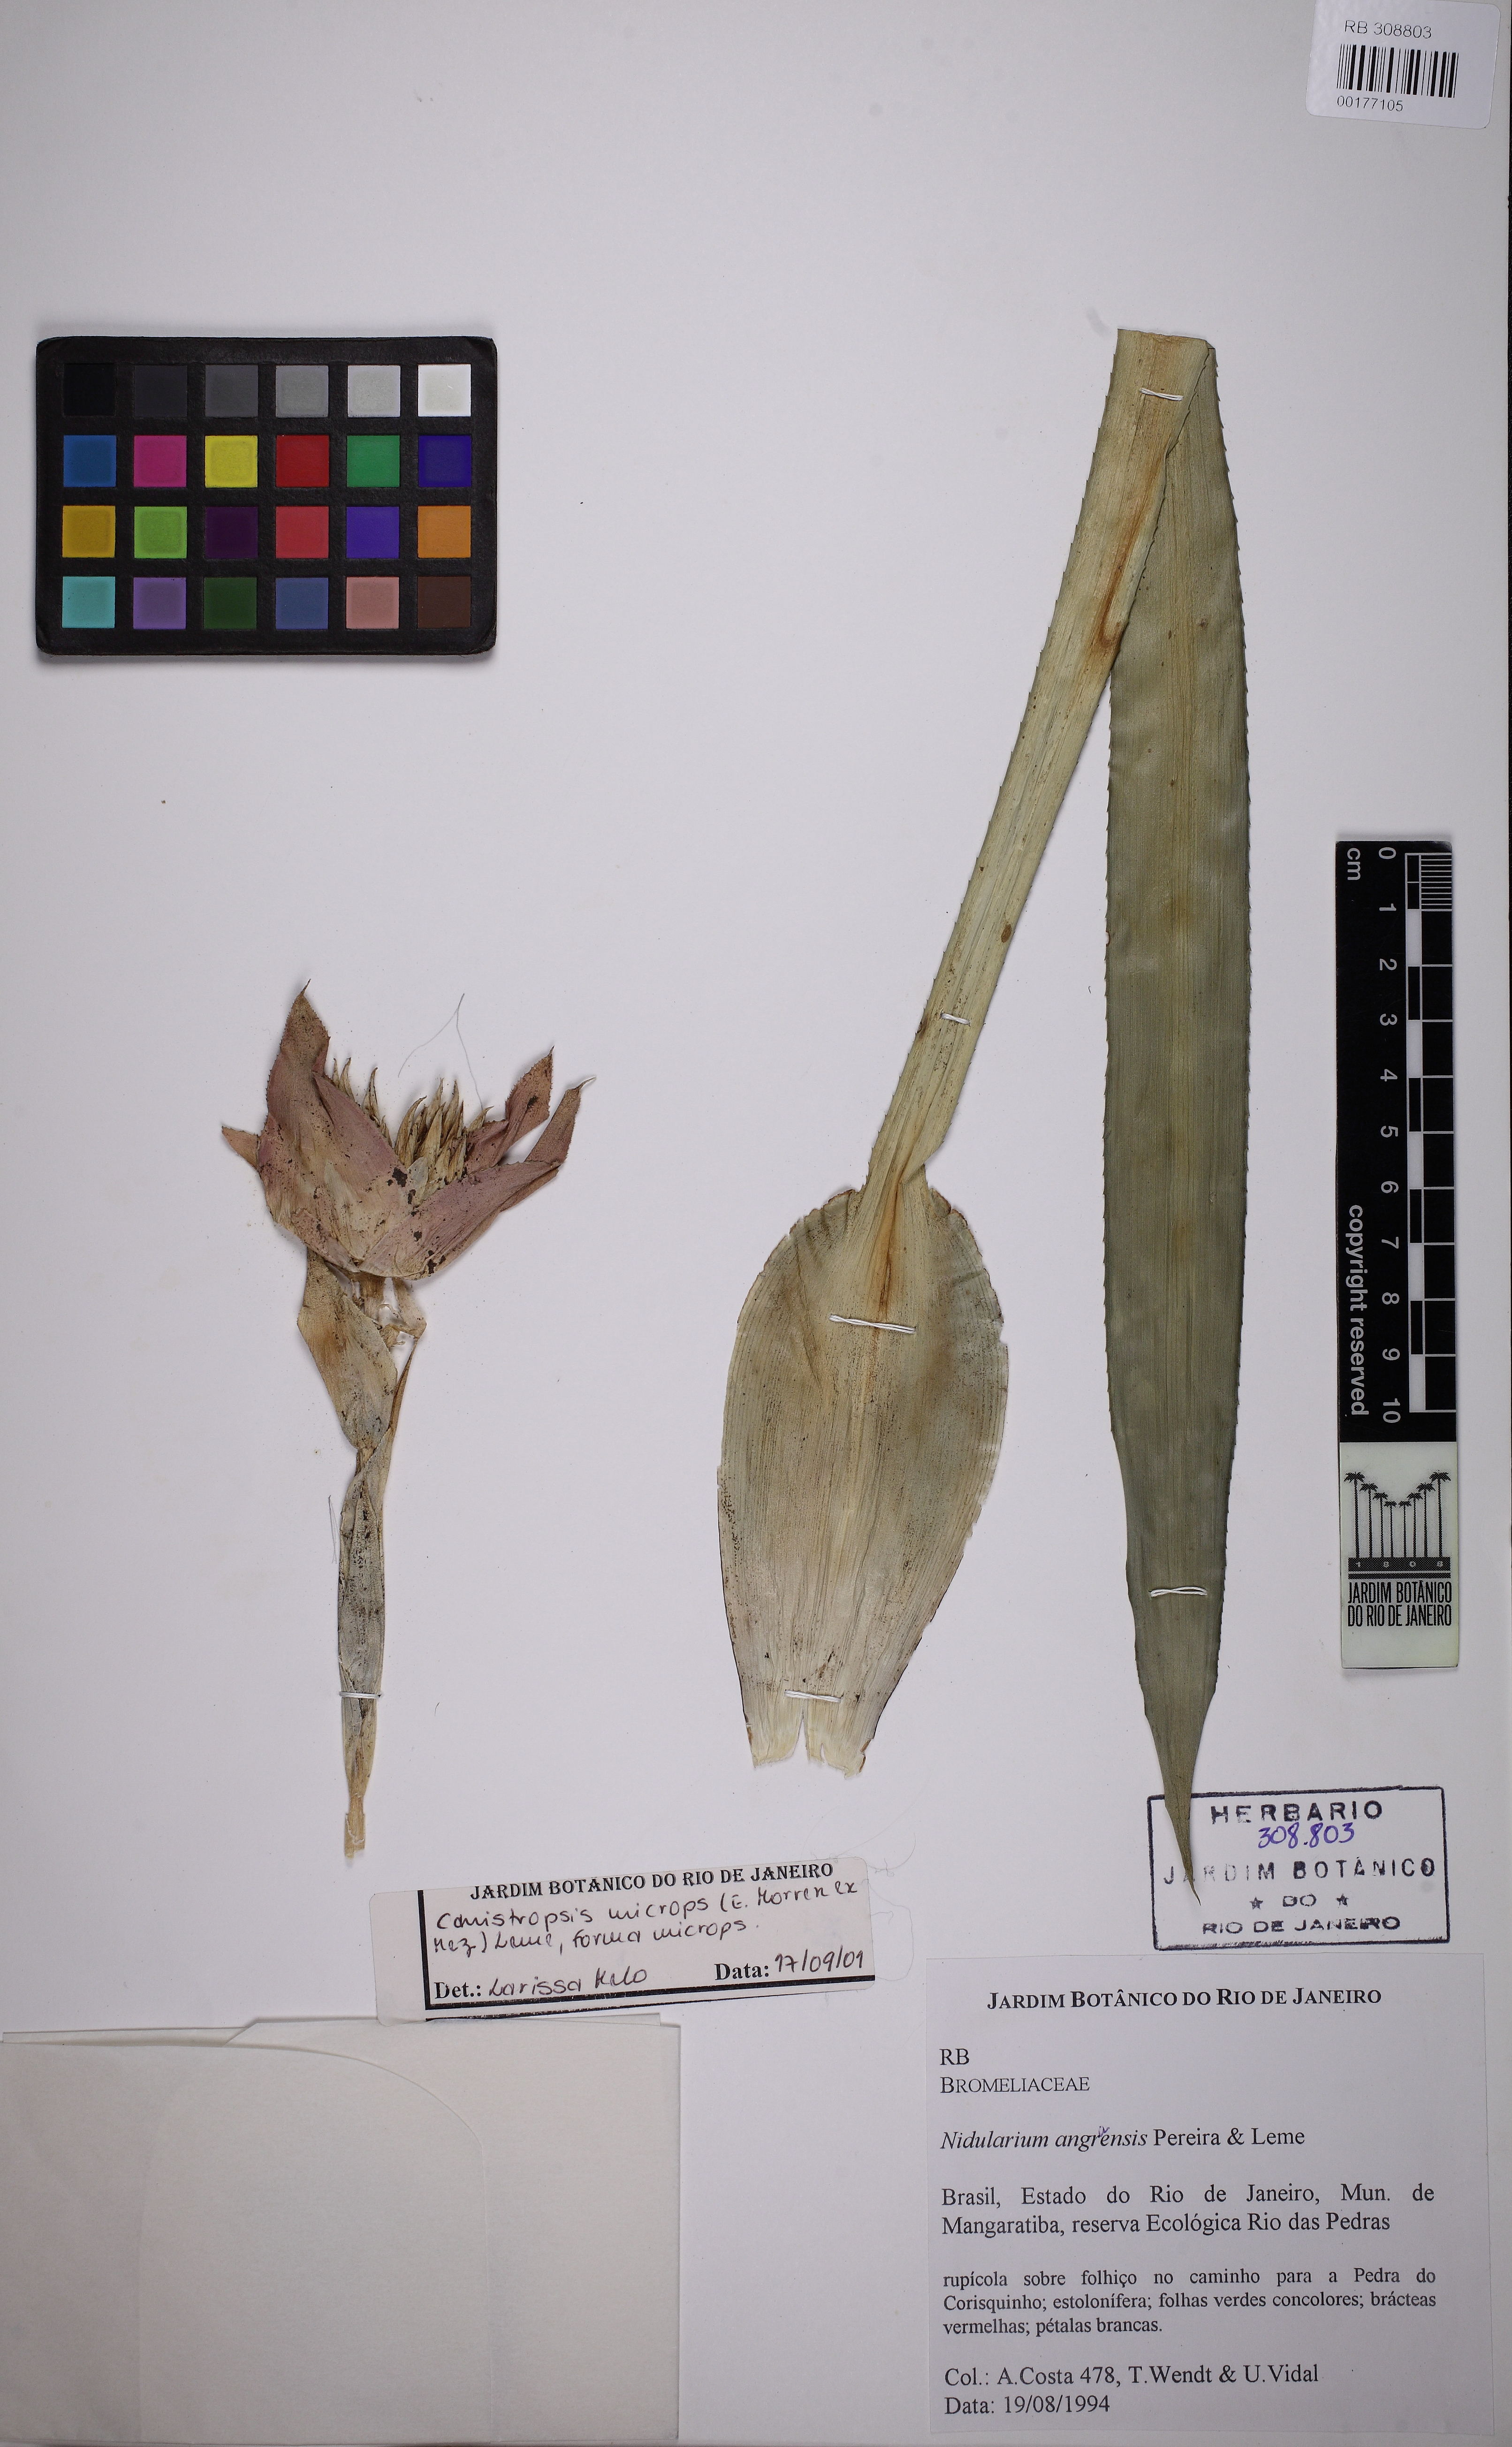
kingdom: Plantae
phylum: Tracheophyta
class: Liliopsida
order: Poales
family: Bromeliaceae
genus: Canistropsis
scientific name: Canistropsis microps
